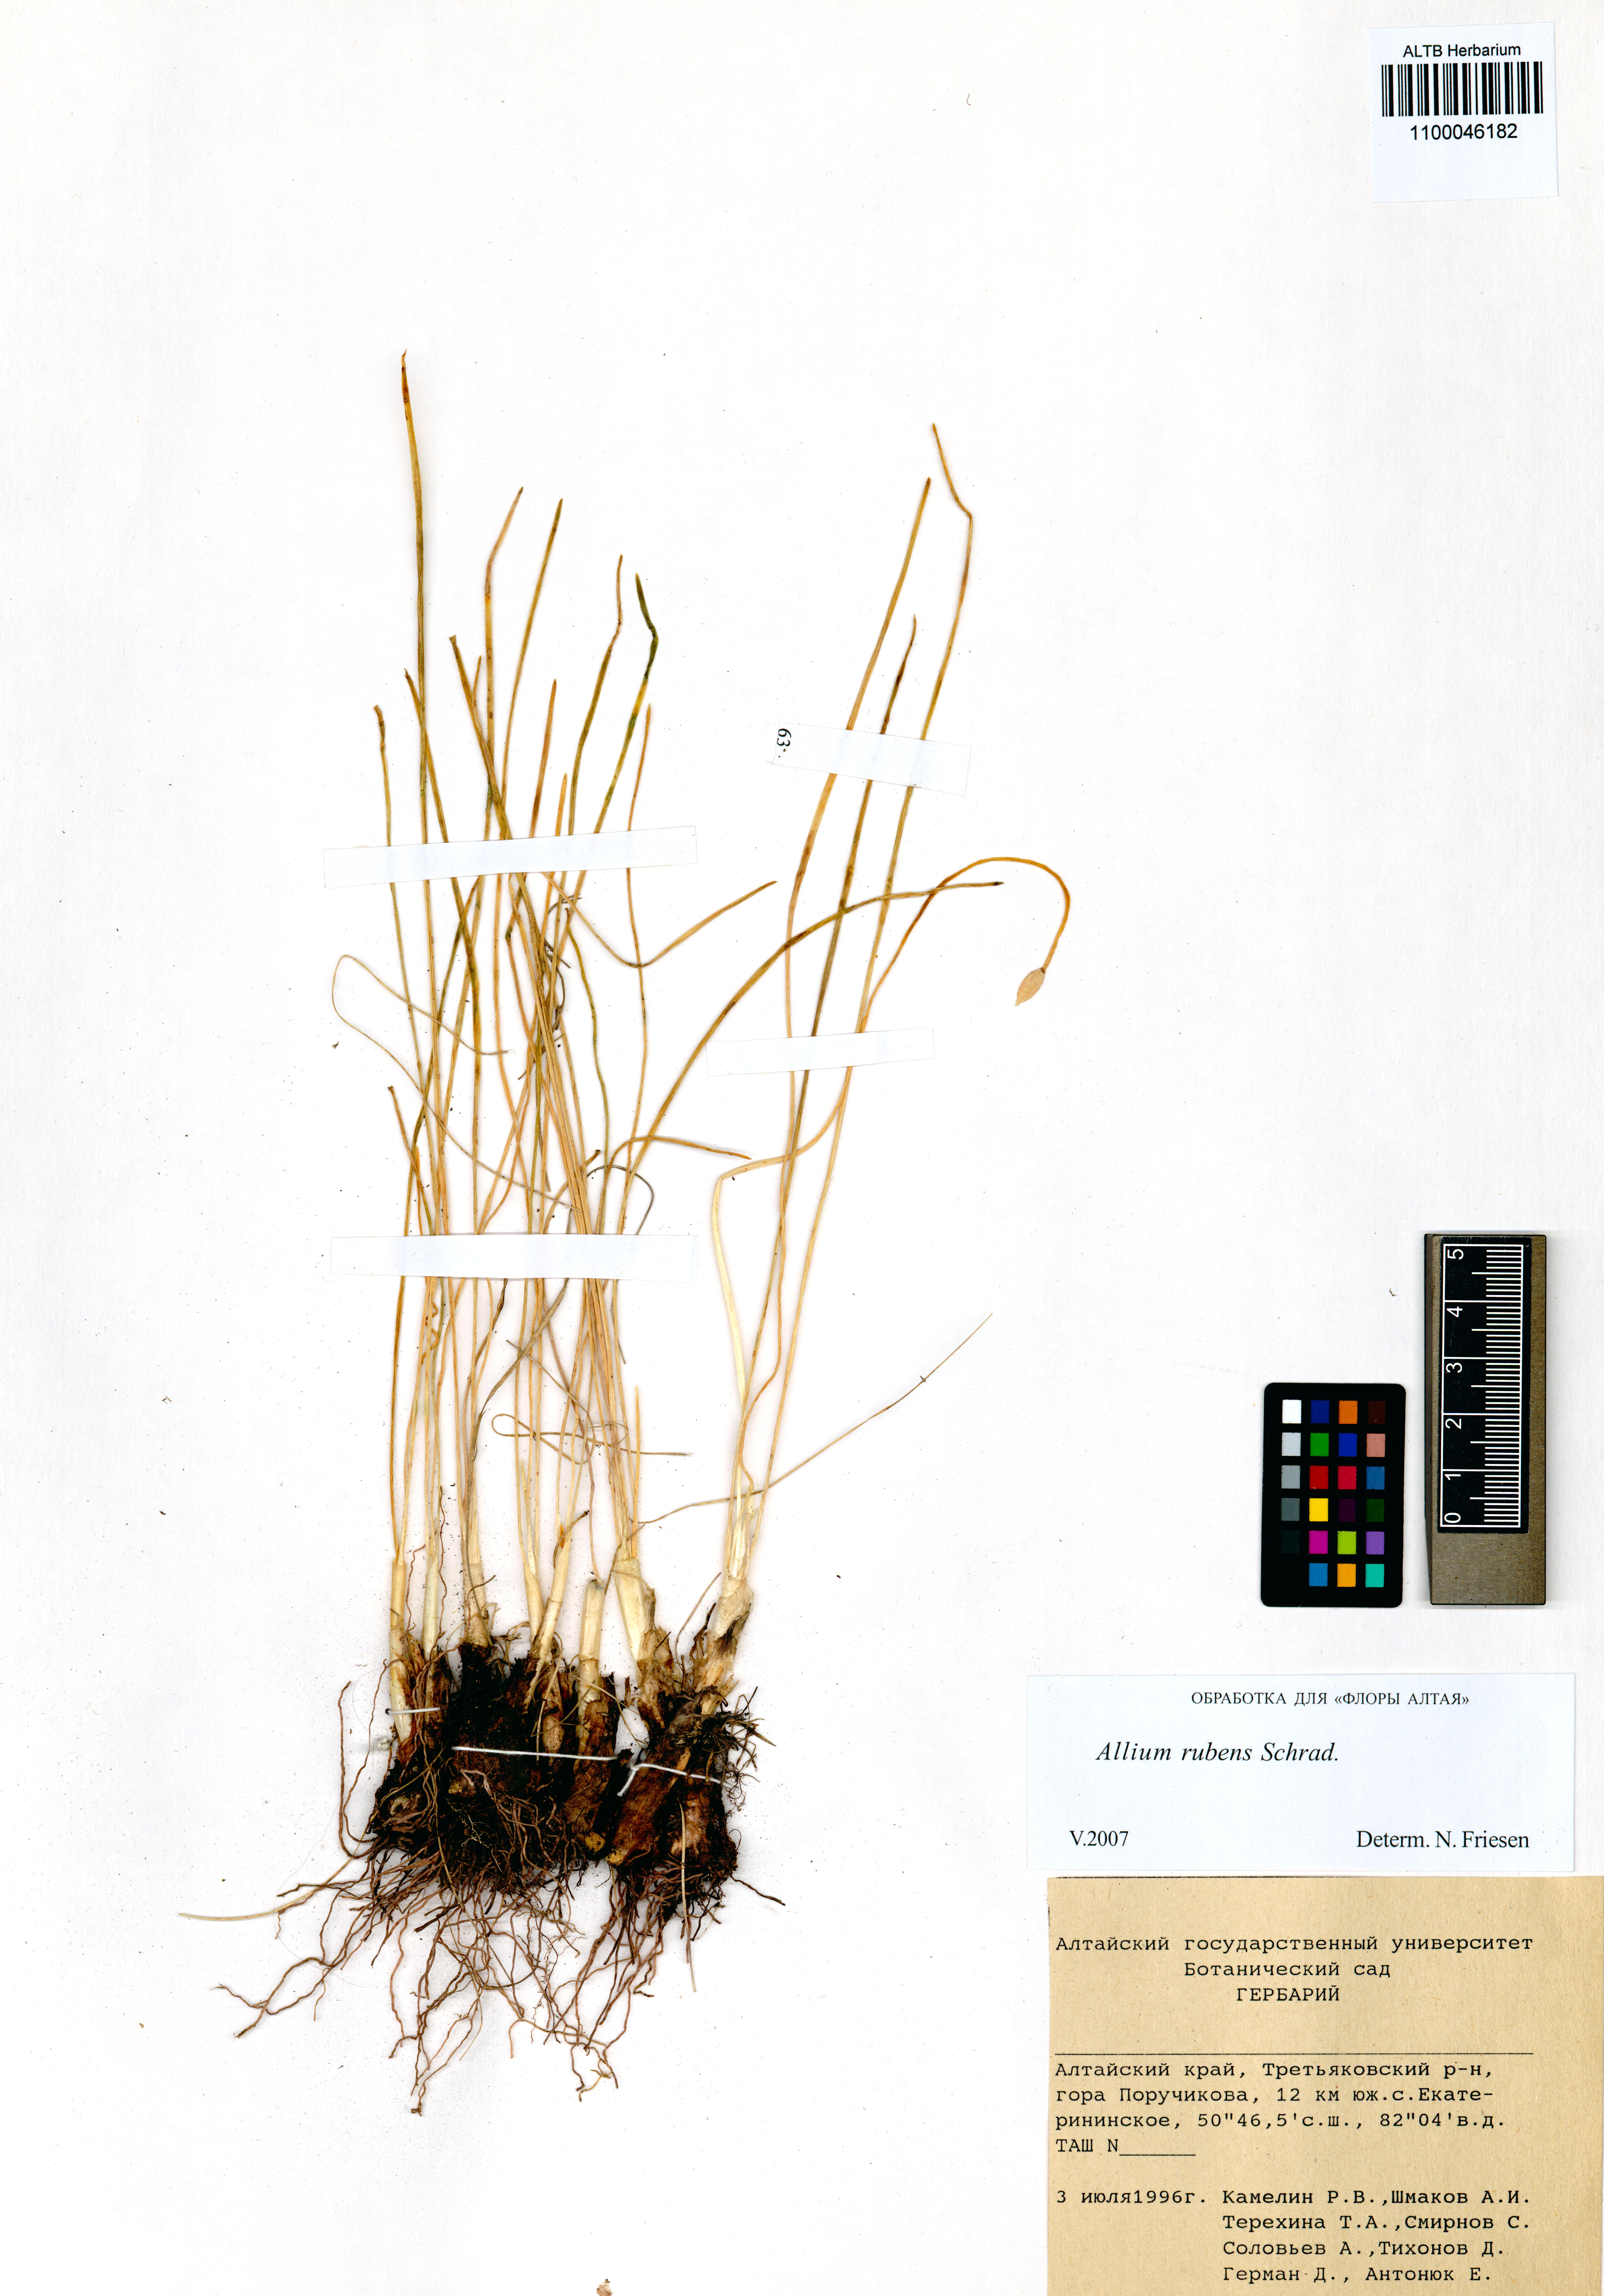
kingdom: Plantae
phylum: Tracheophyta
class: Liliopsida
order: Asparagales
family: Amaryllidaceae
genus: Allium
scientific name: Allium rubens
